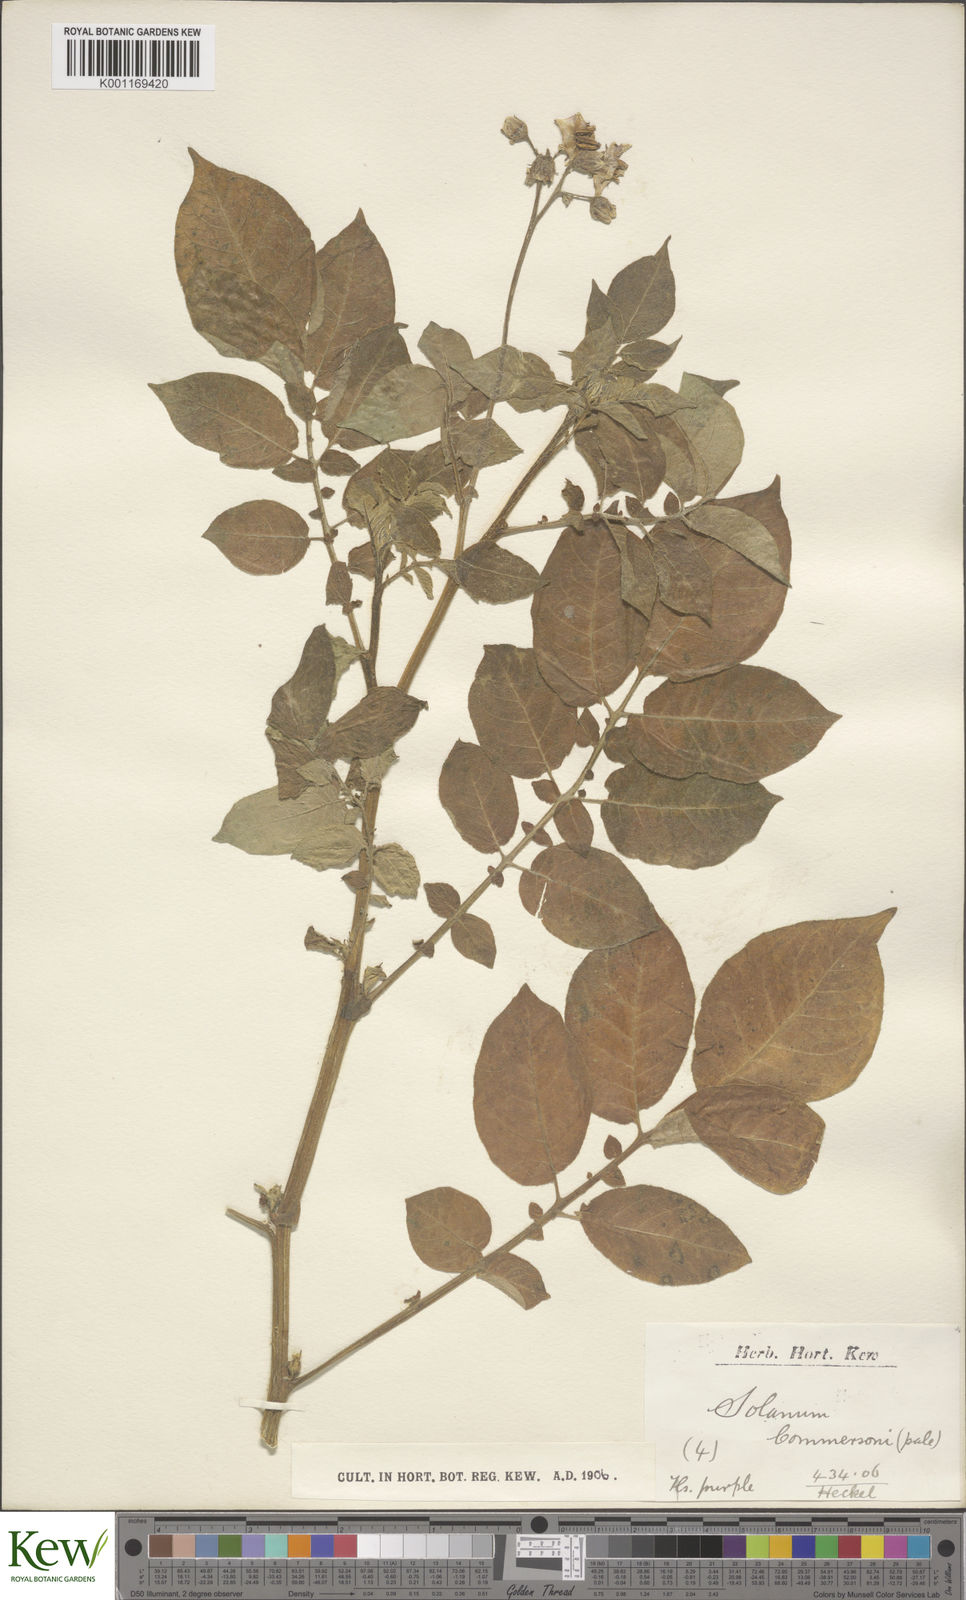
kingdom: Plantae
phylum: Tracheophyta
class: Magnoliopsida
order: Solanales
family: Solanaceae
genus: Solanum
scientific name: Solanum commersonii
